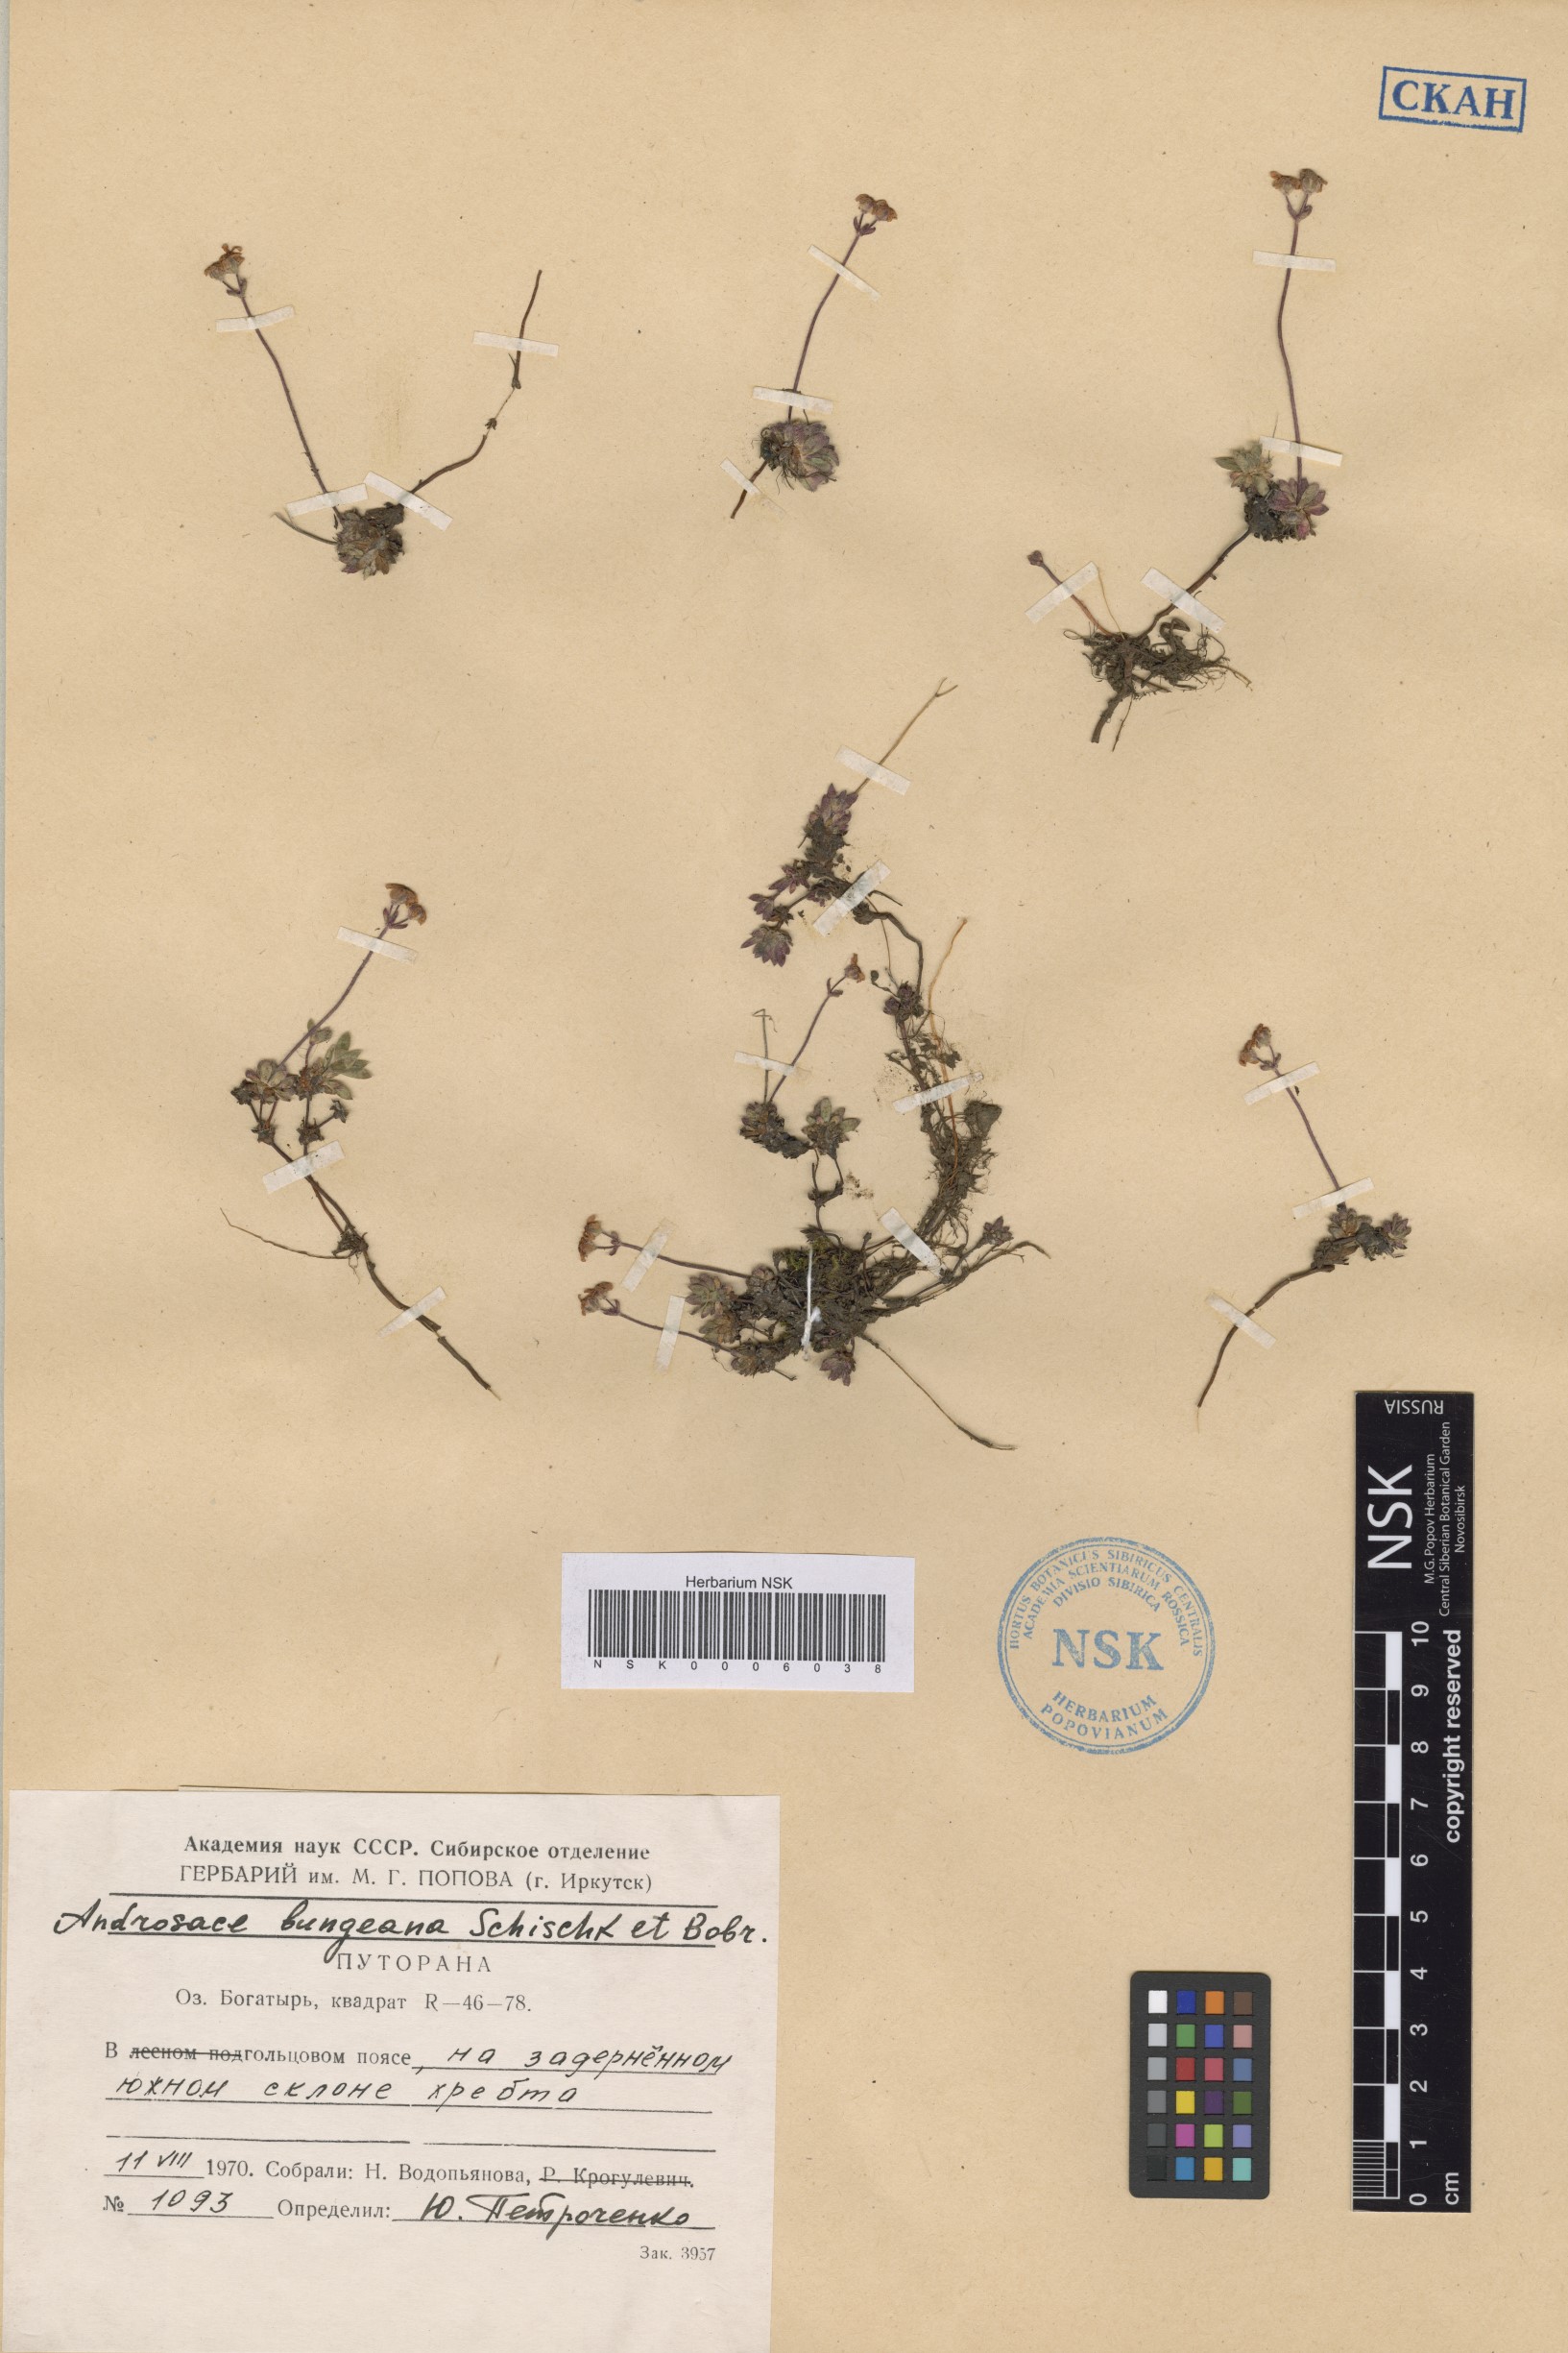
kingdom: Plantae
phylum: Tracheophyta
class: Magnoliopsida
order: Ericales
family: Primulaceae
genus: Androsace
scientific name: Androsace bungeana
